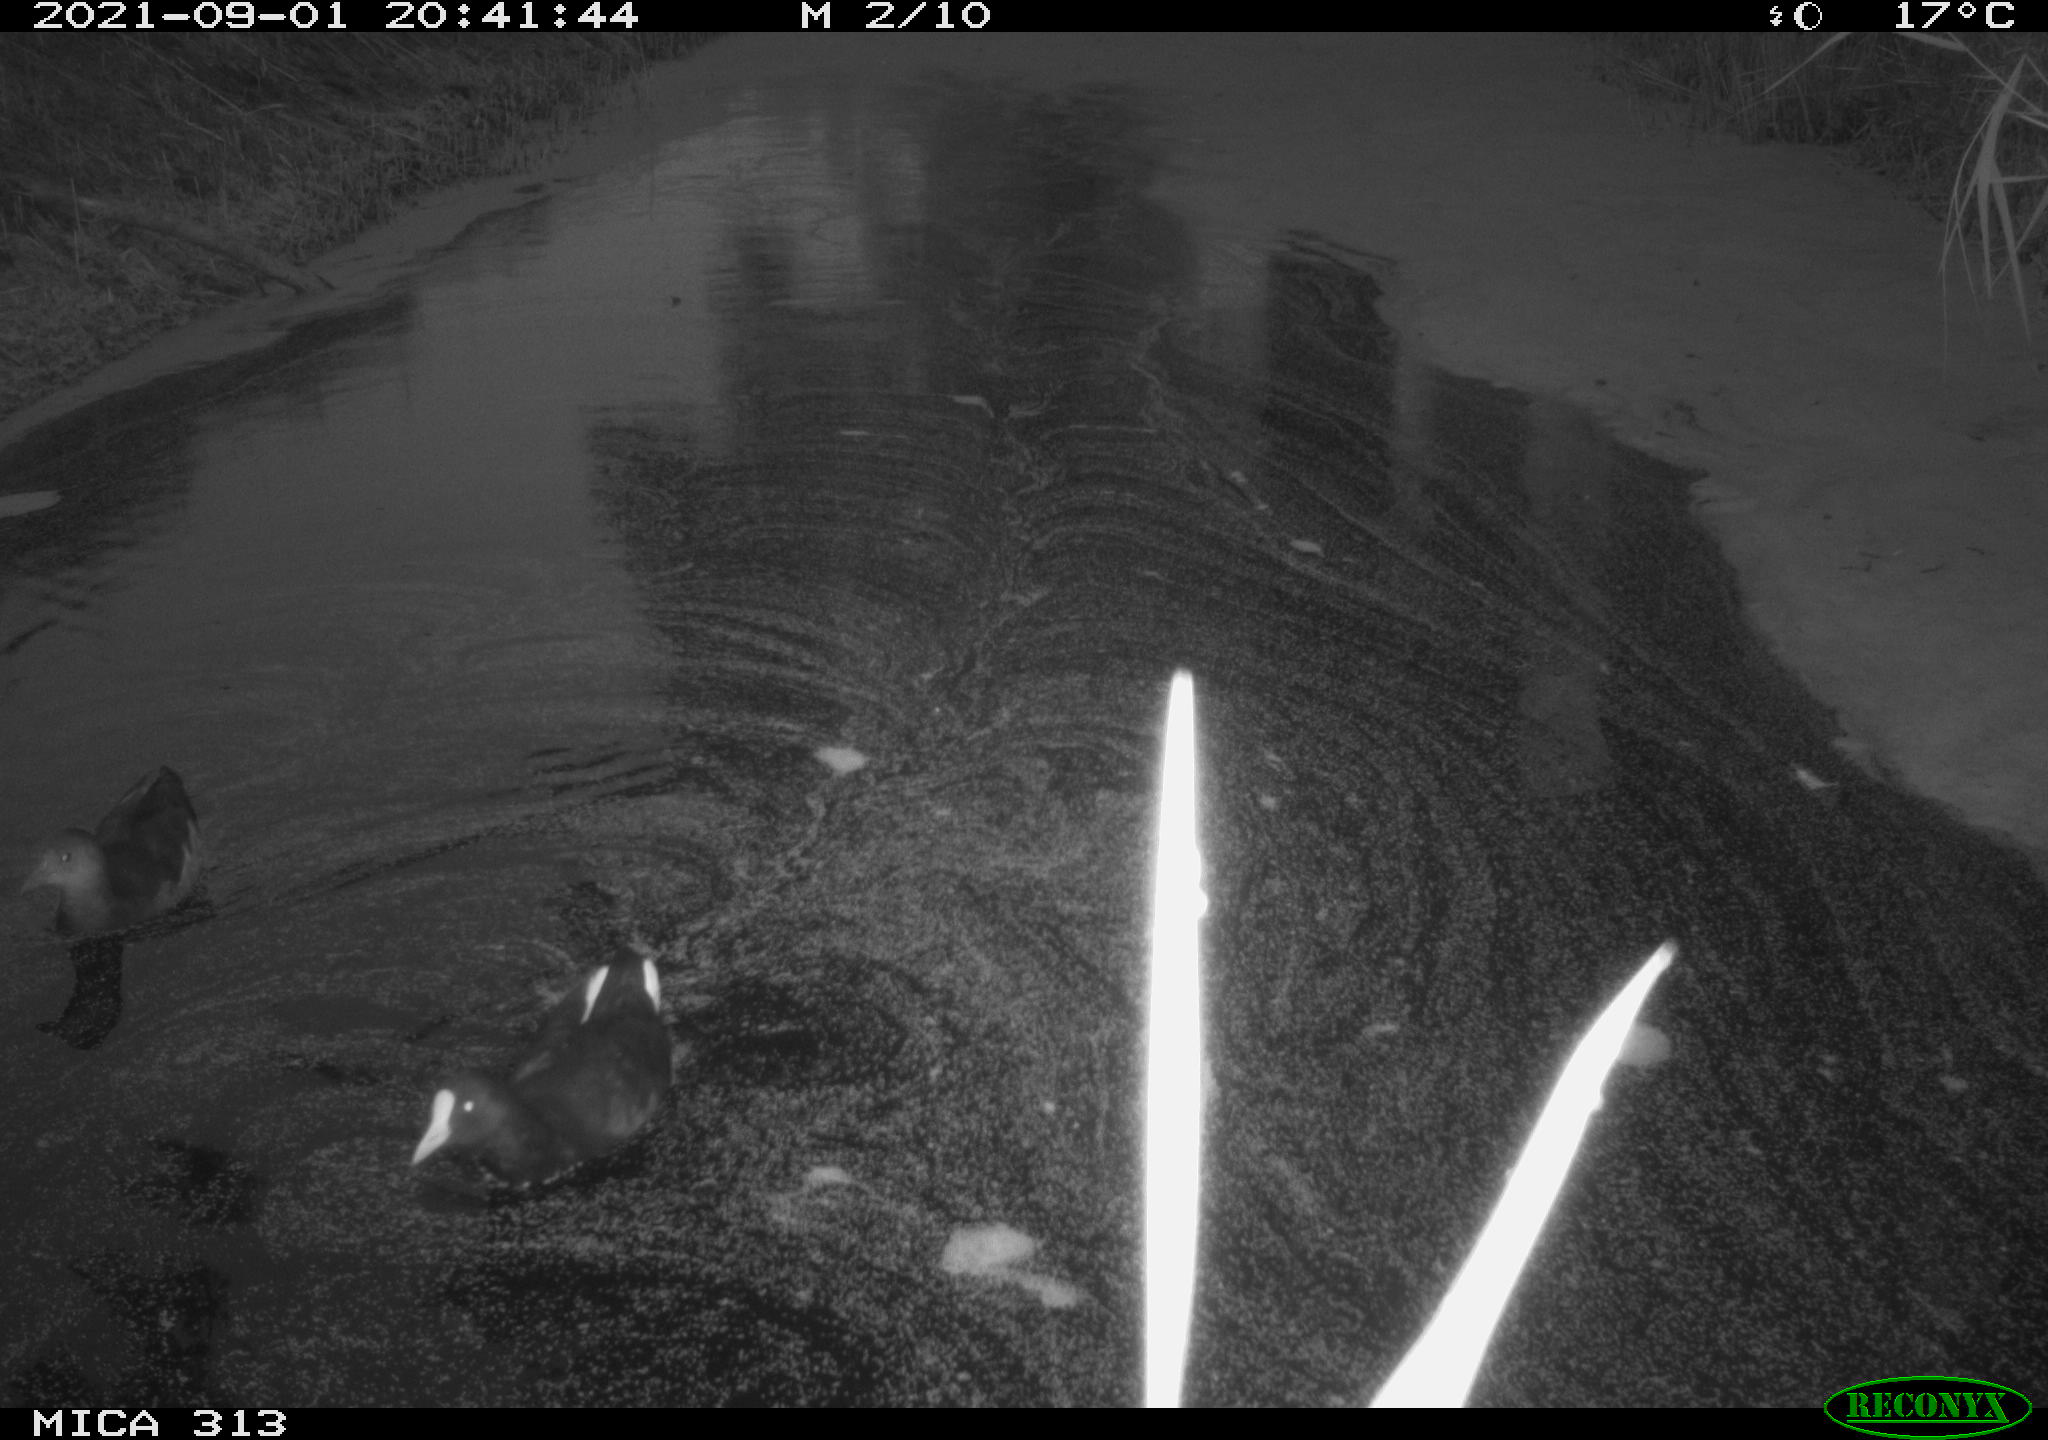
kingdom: Animalia
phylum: Chordata
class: Aves
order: Gruiformes
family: Rallidae
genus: Fulica
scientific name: Fulica atra
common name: Eurasian coot
